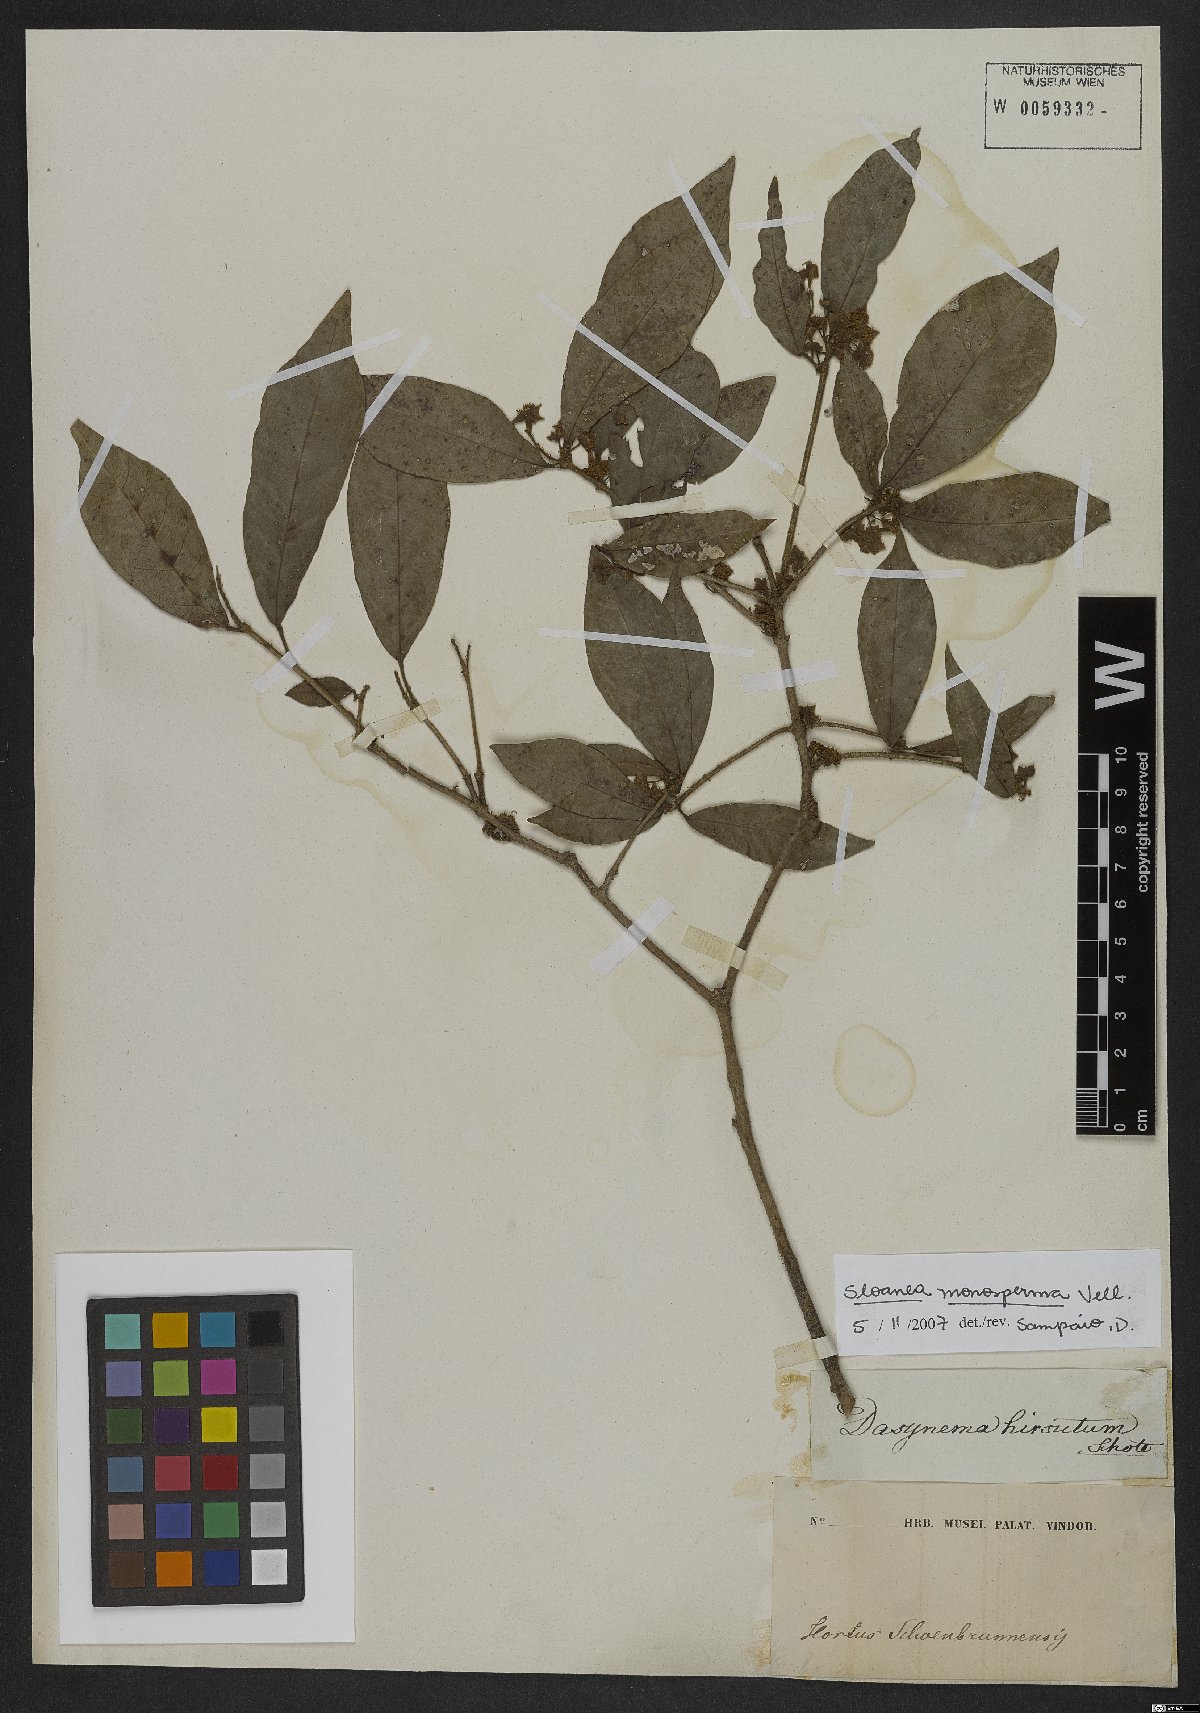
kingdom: Plantae
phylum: Tracheophyta
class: Magnoliopsida
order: Oxalidales
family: Elaeocarpaceae
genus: Sloanea
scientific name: Sloanea hirsuta
